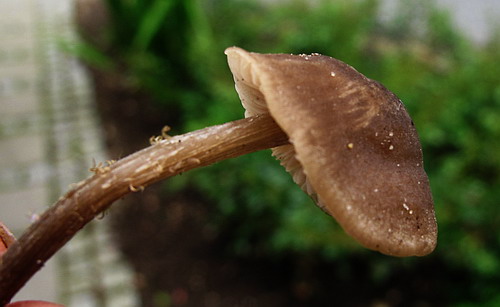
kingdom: Fungi
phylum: Basidiomycota
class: Agaricomycetes
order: Agaricales
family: Entolomataceae
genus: Entoloma
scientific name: Entoloma
